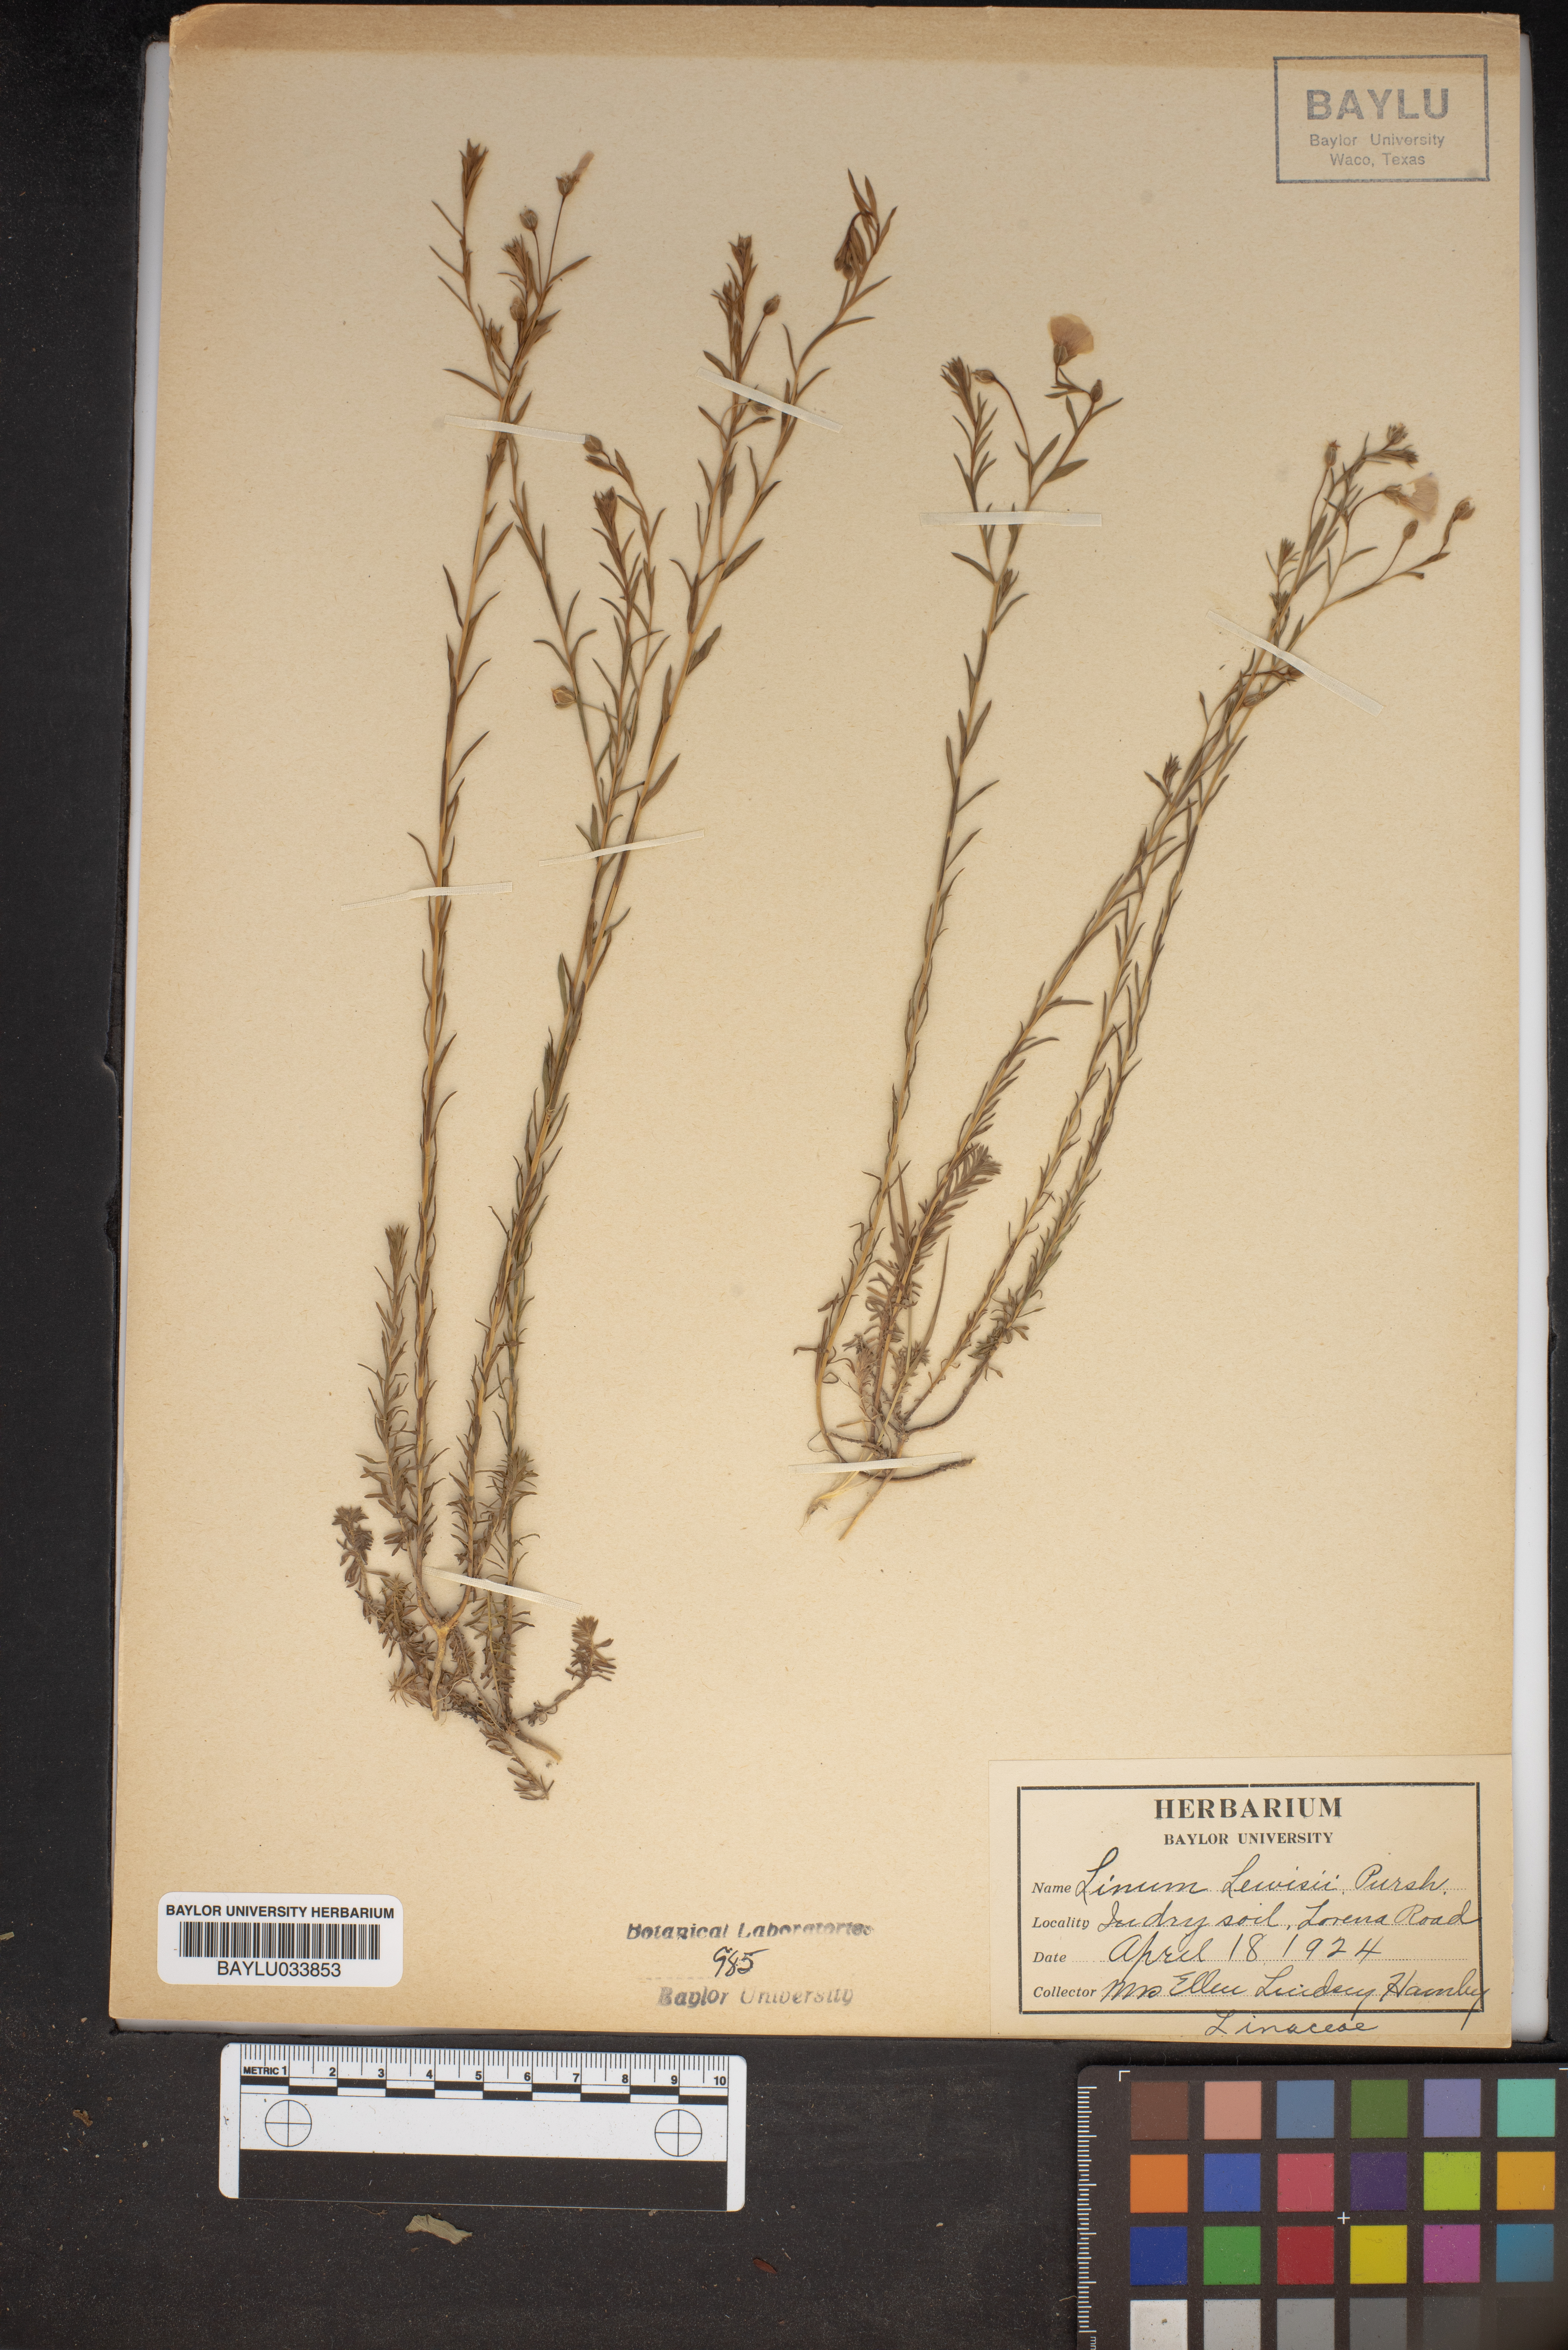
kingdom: Plantae
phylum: Tracheophyta
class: Magnoliopsida
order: Malpighiales
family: Linaceae
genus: Linum
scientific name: Linum lewisii
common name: Prairie flax
